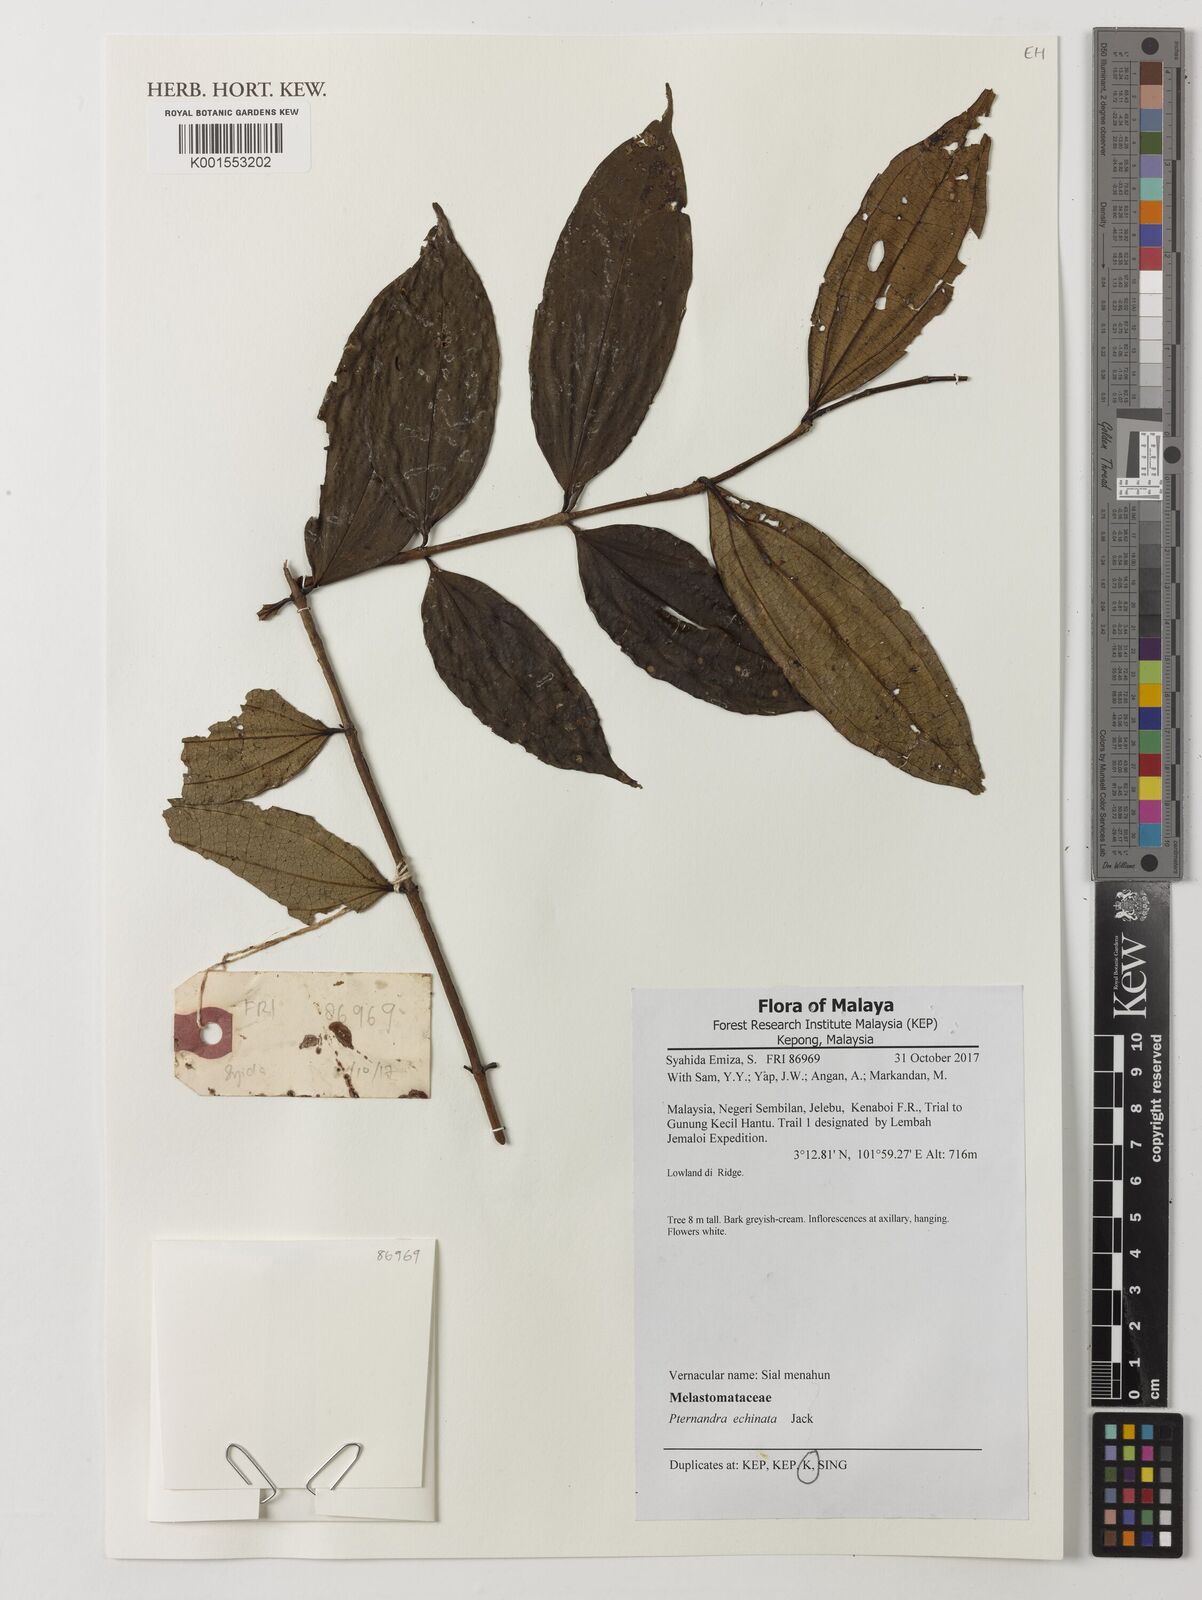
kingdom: Plantae
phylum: Tracheophyta
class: Magnoliopsida
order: Myrtales
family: Melastomataceae
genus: Pternandra
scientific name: Pternandra echinata
